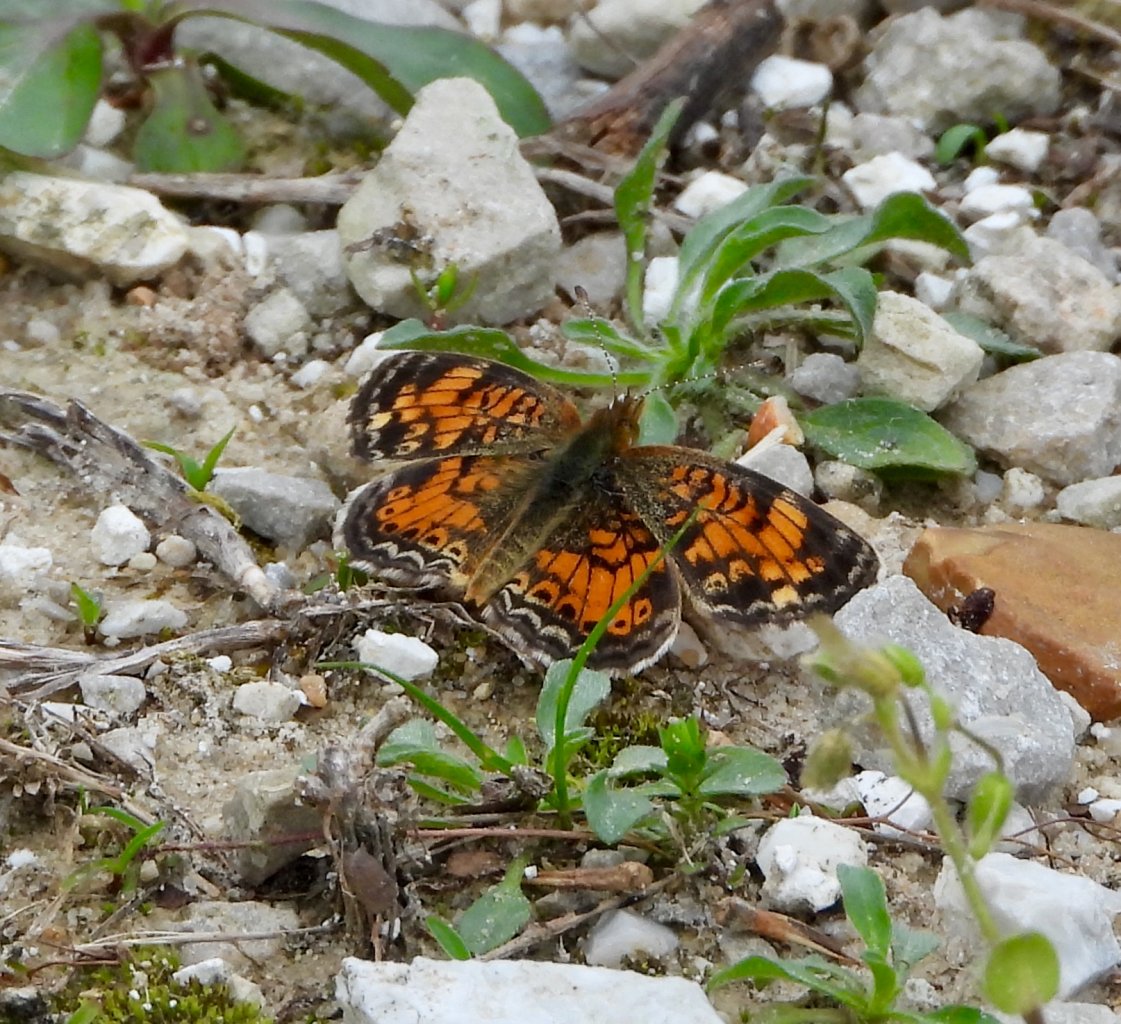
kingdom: Animalia
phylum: Arthropoda
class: Insecta
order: Lepidoptera
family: Nymphalidae
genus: Phyciodes
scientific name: Phyciodes tharos
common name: Pearl Crescent
